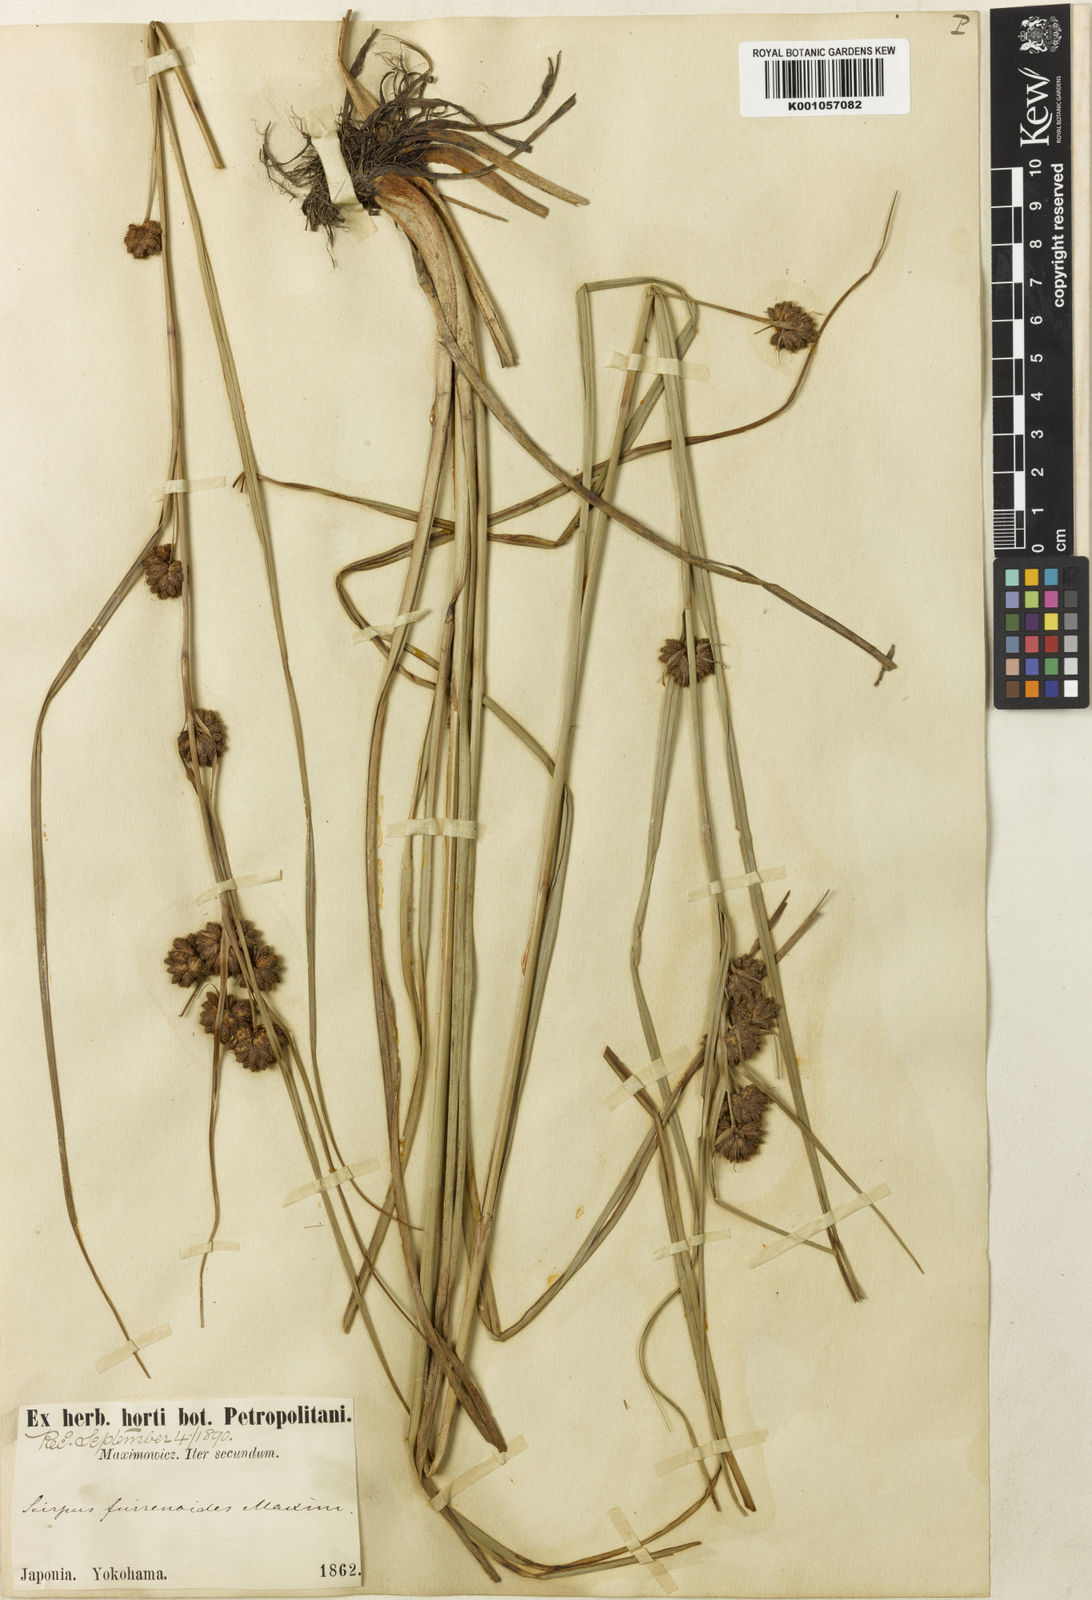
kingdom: Plantae
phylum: Tracheophyta
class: Liliopsida
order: Poales
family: Cyperaceae
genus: Scirpus
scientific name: Scirpus fuirenoides
